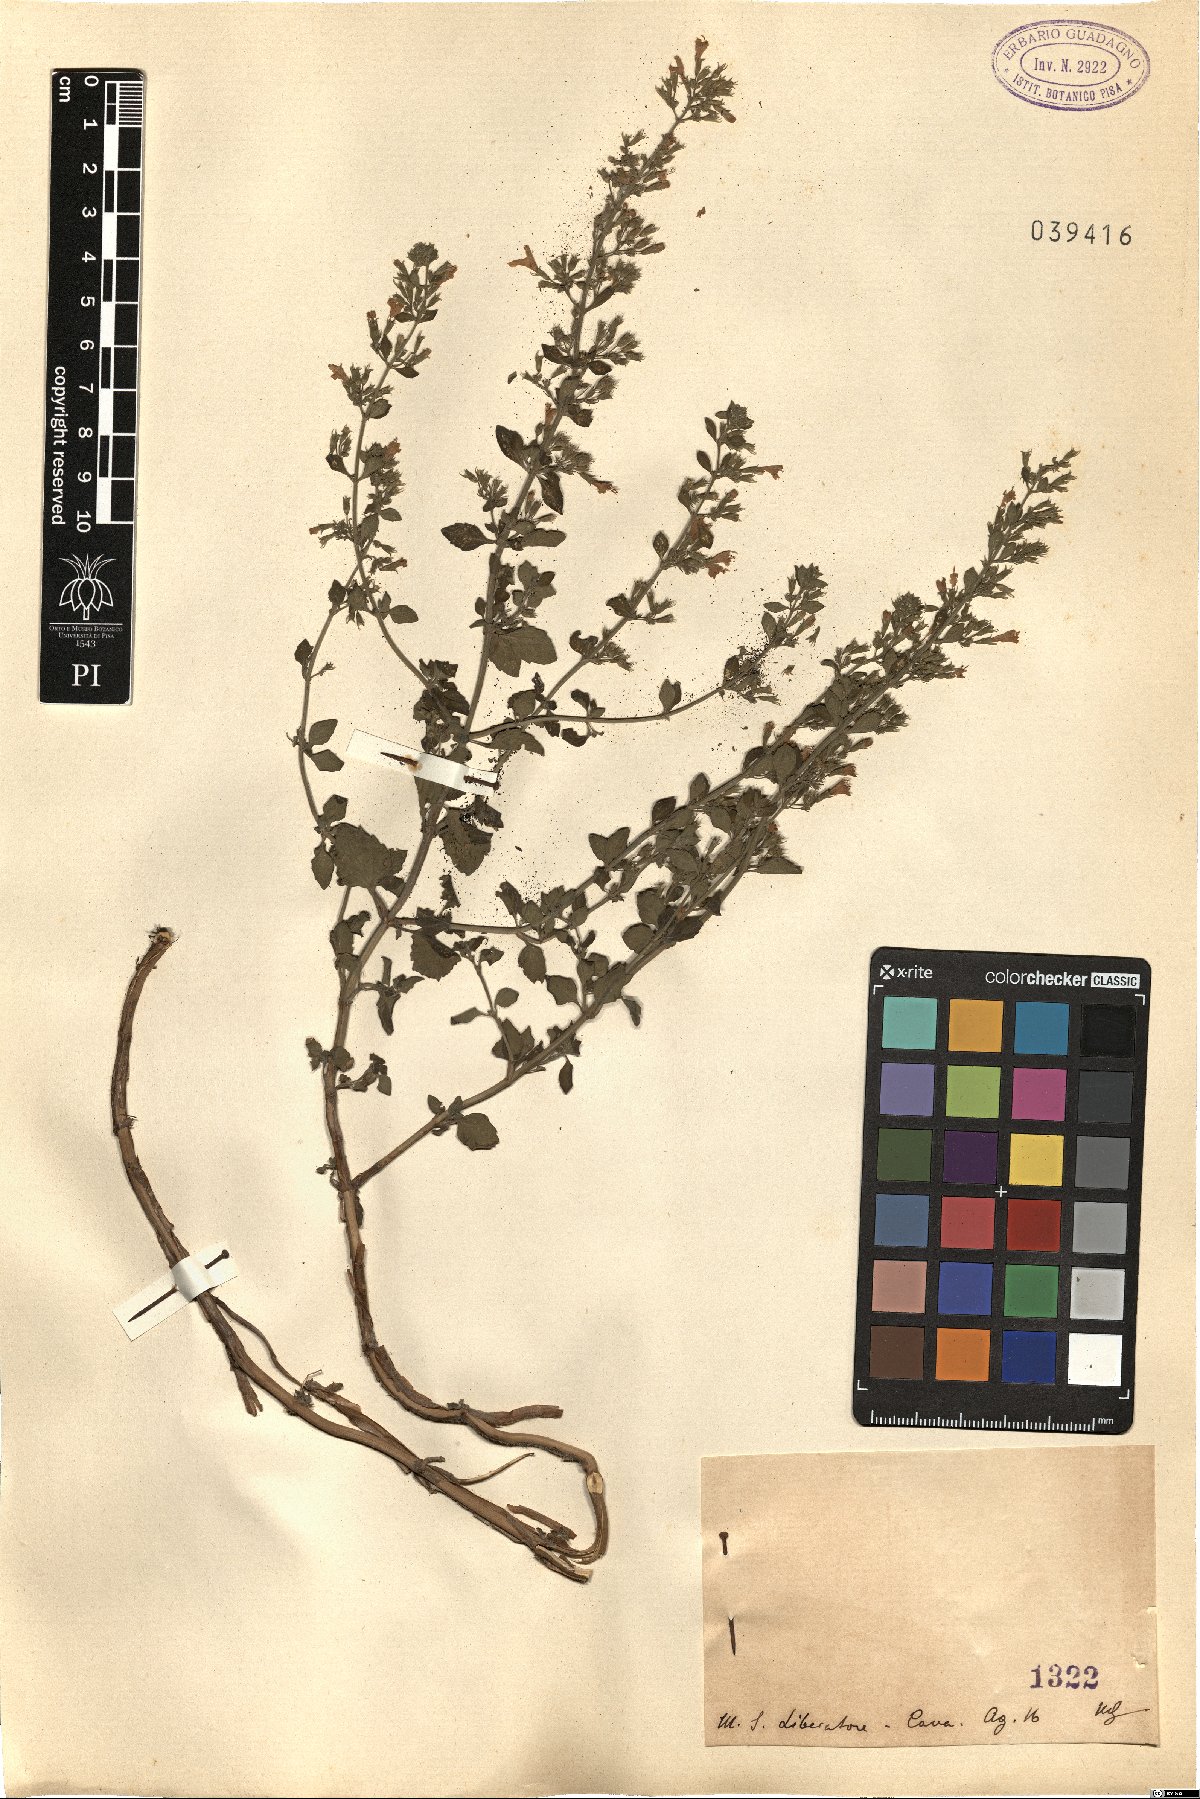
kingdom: Plantae
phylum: Tracheophyta
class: Magnoliopsida
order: Lamiales
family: Lamiaceae
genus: Calamintha
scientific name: Calamintha
